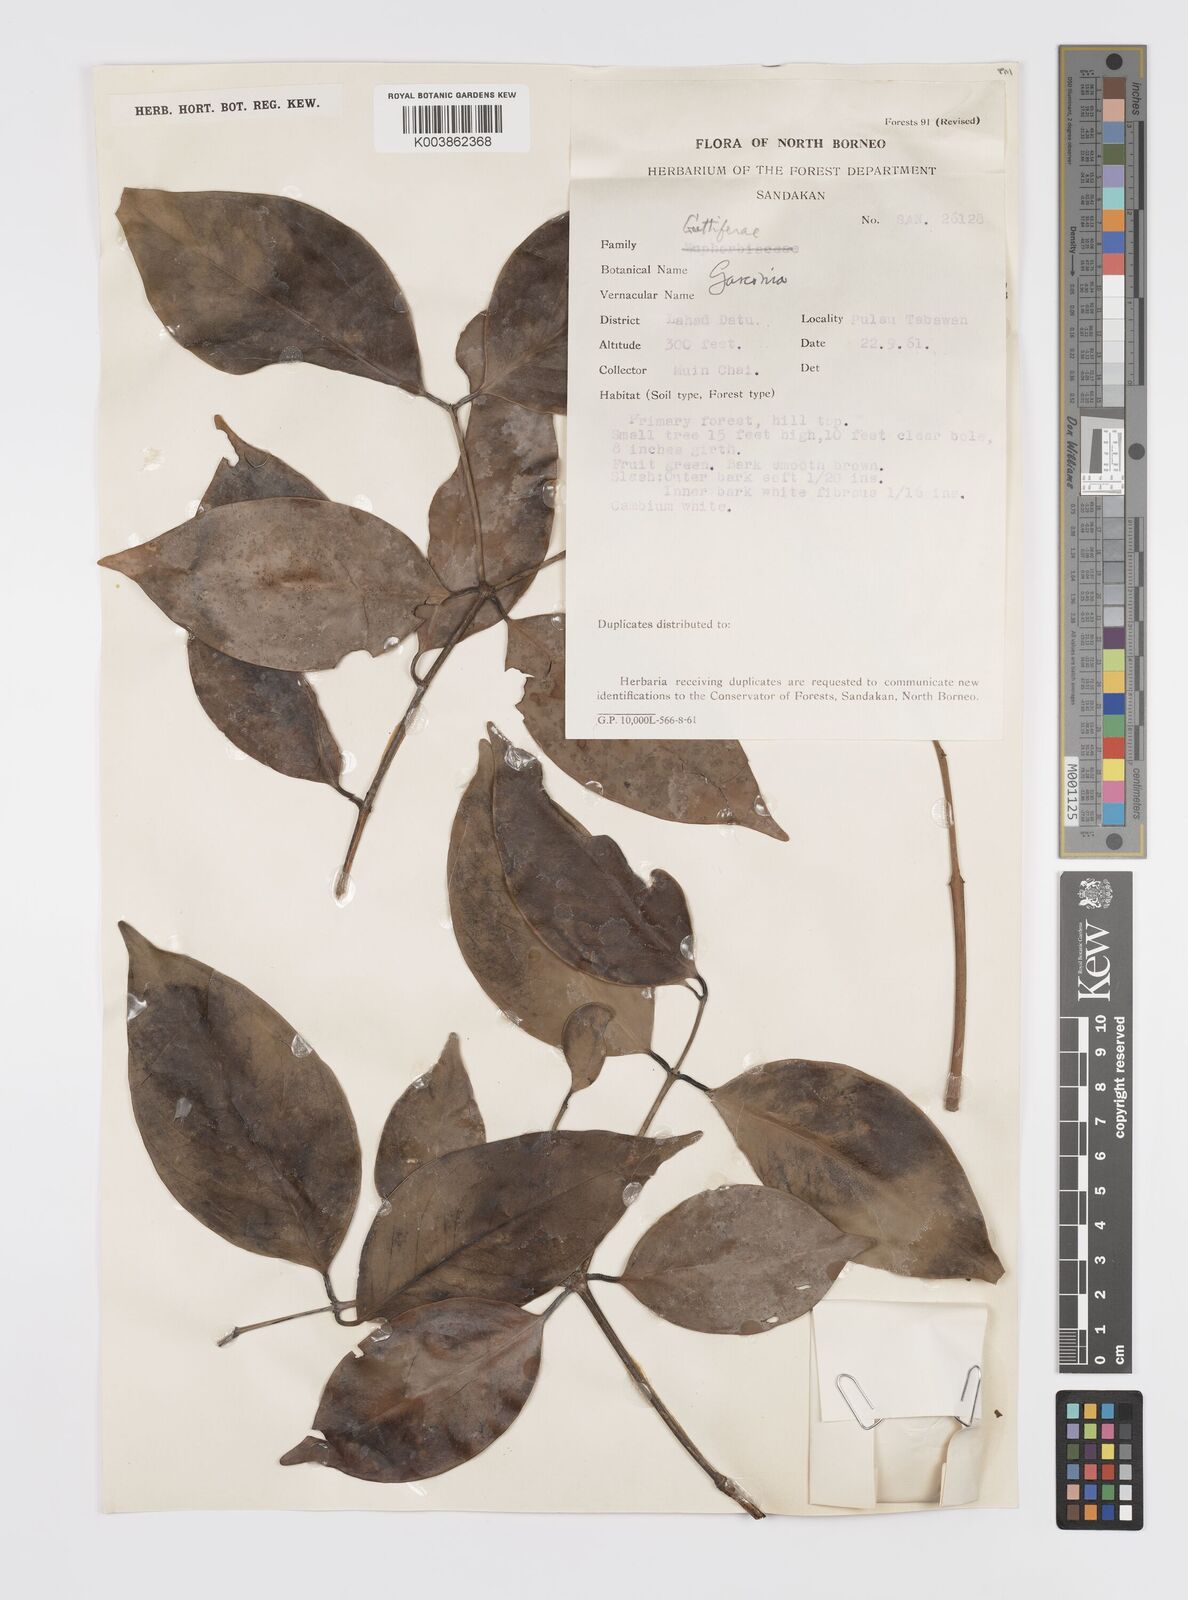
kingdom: Plantae
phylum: Tracheophyta
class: Magnoliopsida
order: Malpighiales
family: Clusiaceae
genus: Garcinia
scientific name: Garcinia
